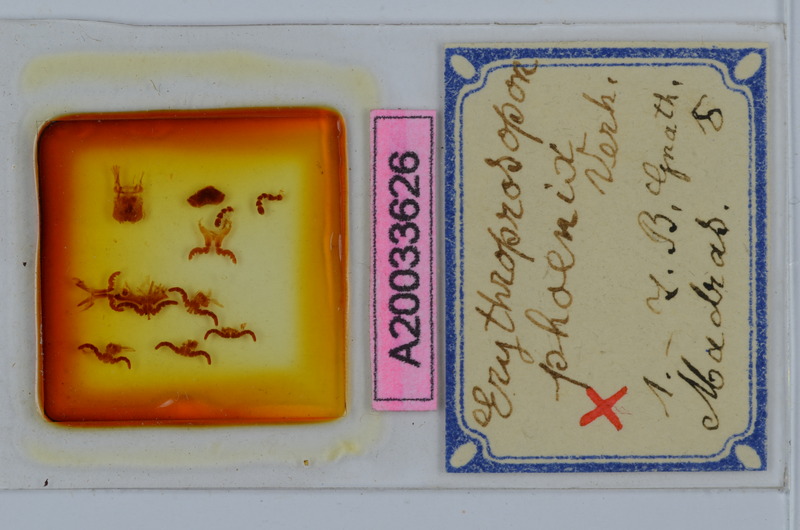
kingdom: Animalia
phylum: Arthropoda
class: Diplopoda
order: Spirobolida
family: Pachybolidae
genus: Erythroprosopon
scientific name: Erythroprosopon phoenix
